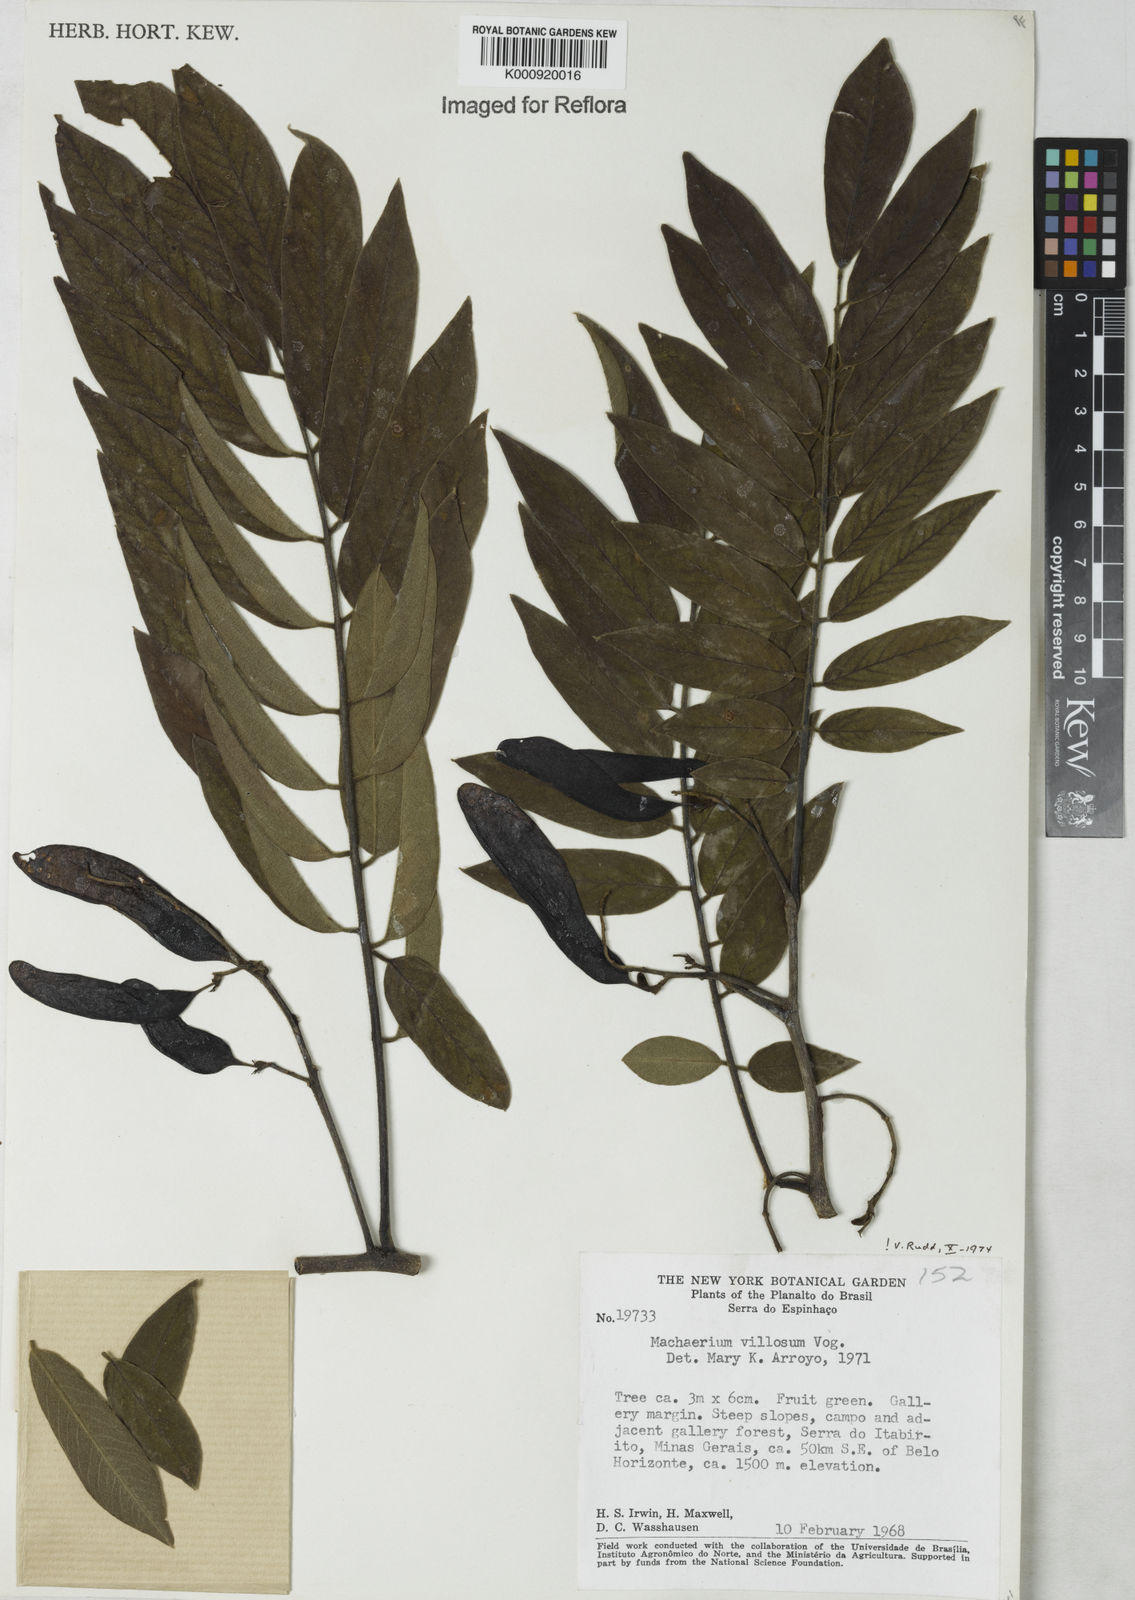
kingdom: Plantae
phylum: Tracheophyta
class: Magnoliopsida
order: Fabales
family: Fabaceae
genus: Machaerium
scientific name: Machaerium villosum
